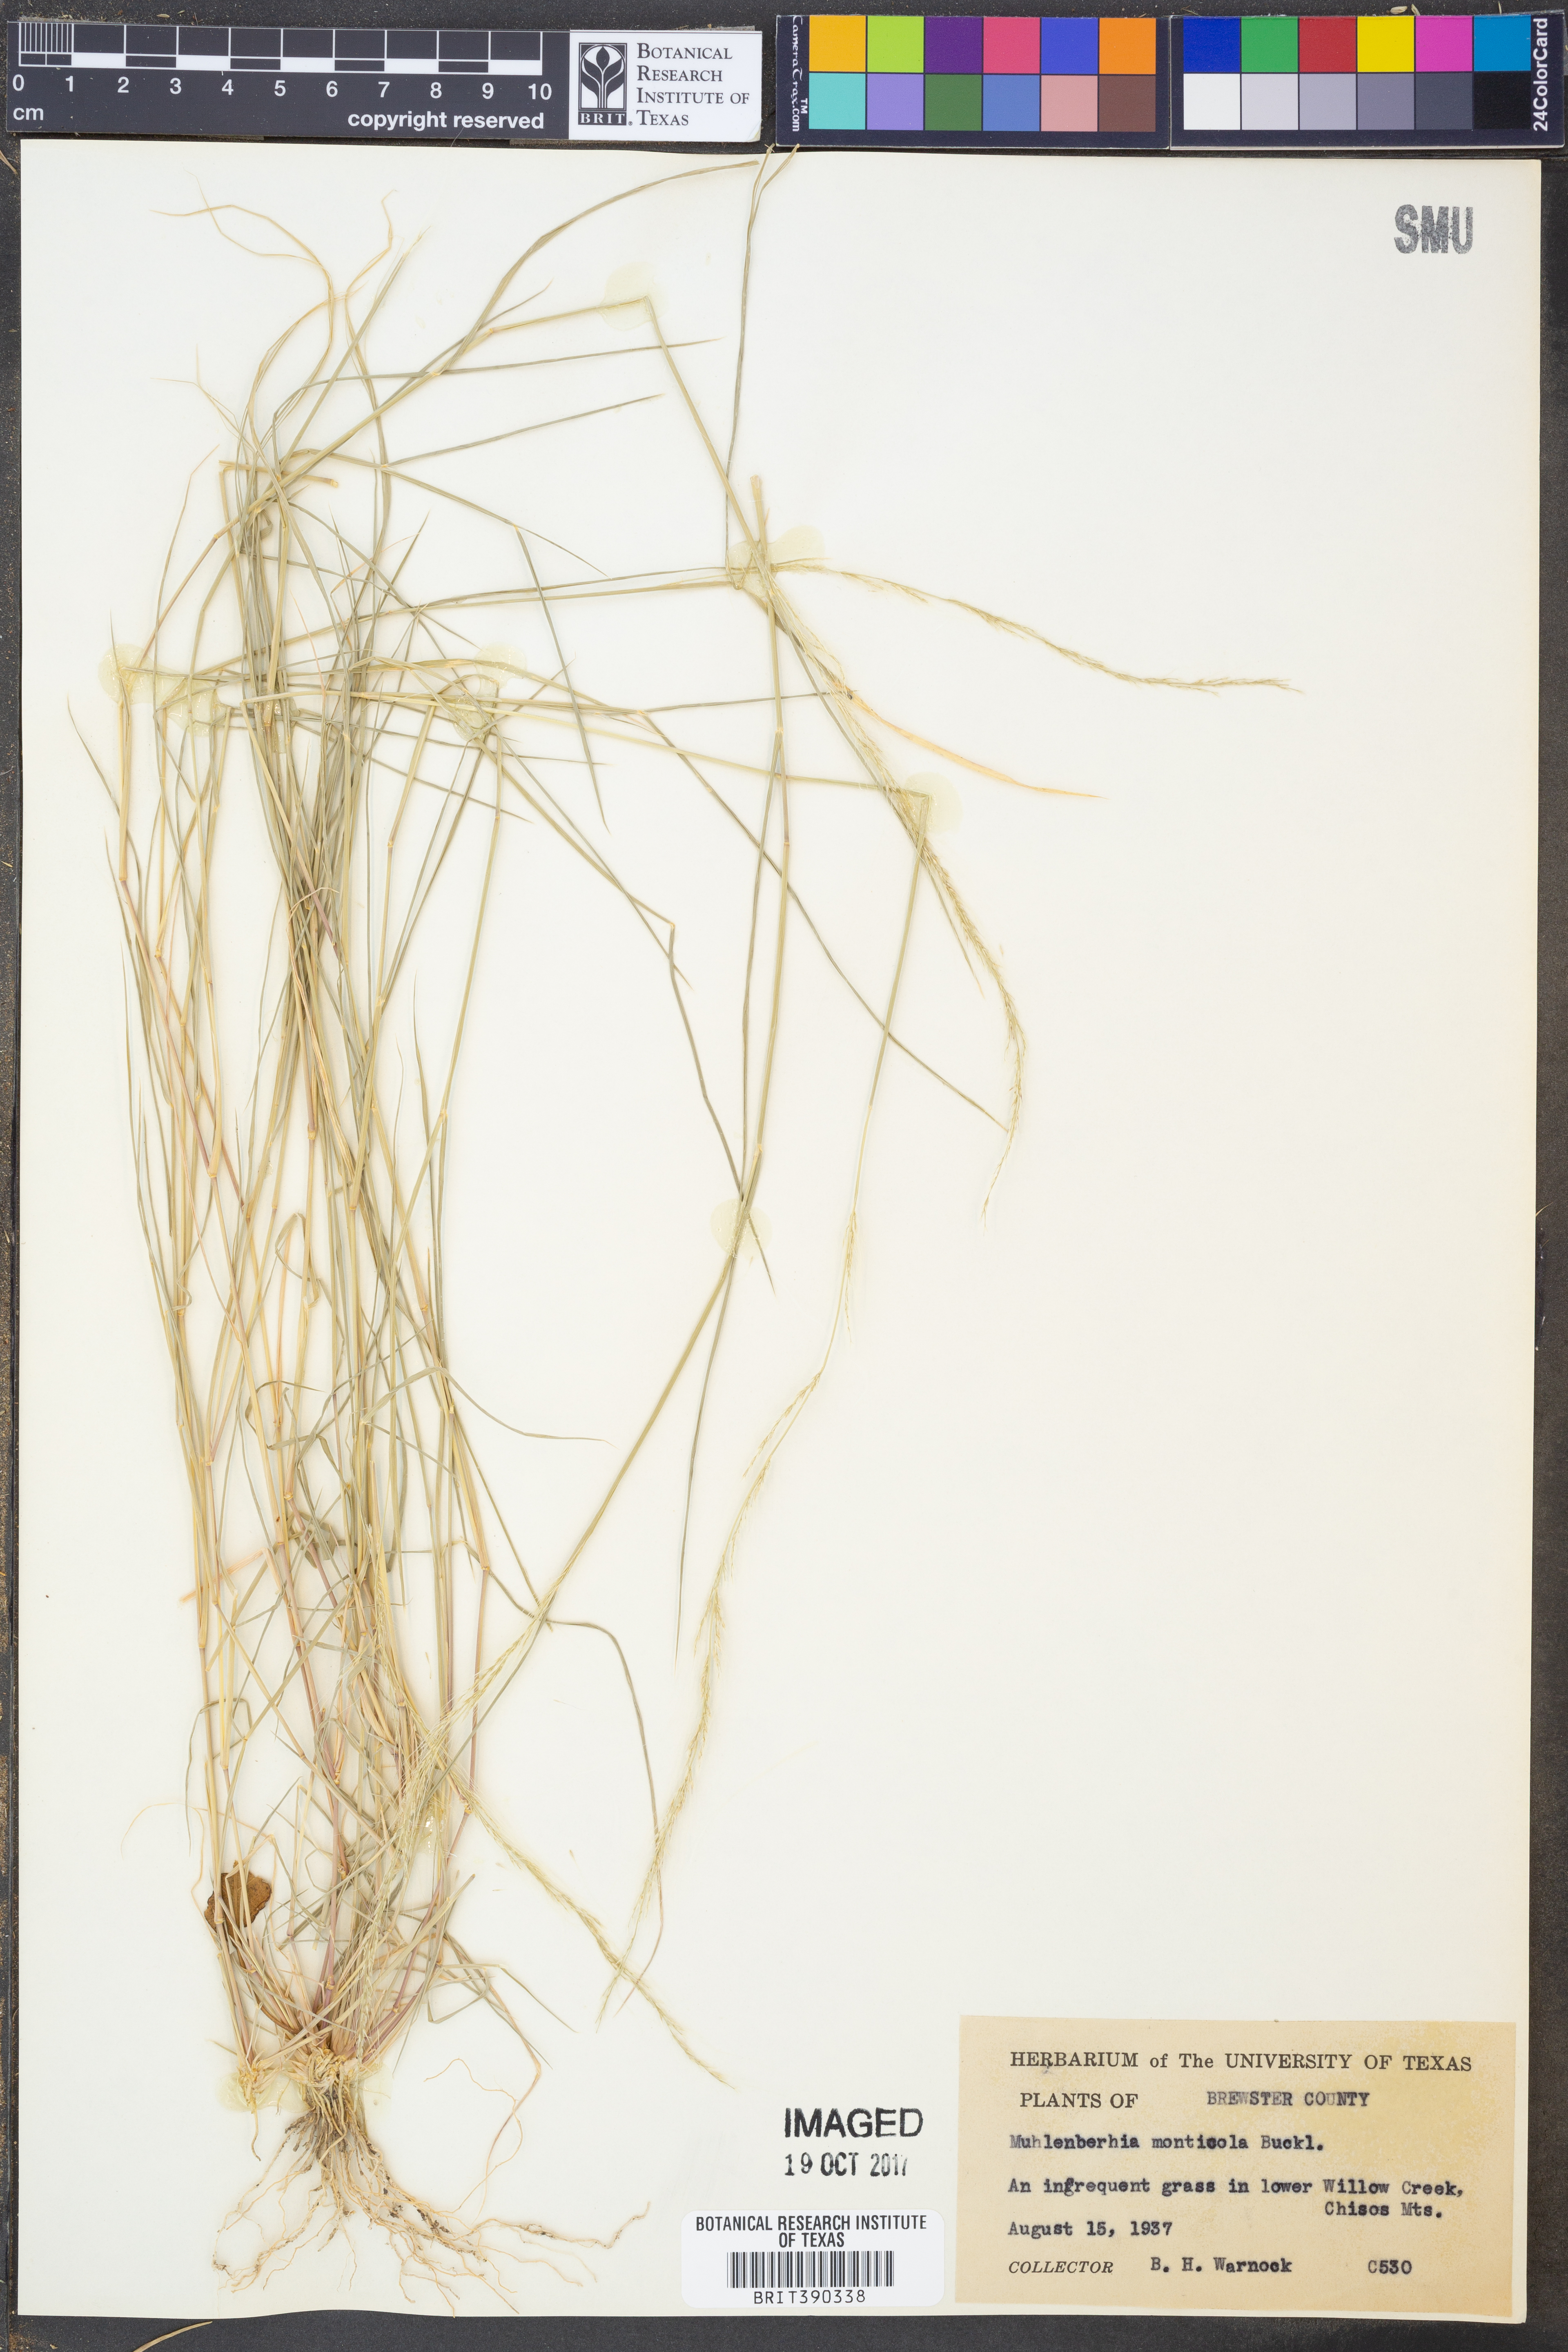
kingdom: Plantae
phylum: Tracheophyta
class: Liliopsida
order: Poales
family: Poaceae
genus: Muhlenbergia
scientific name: Muhlenbergia tenuifolia
